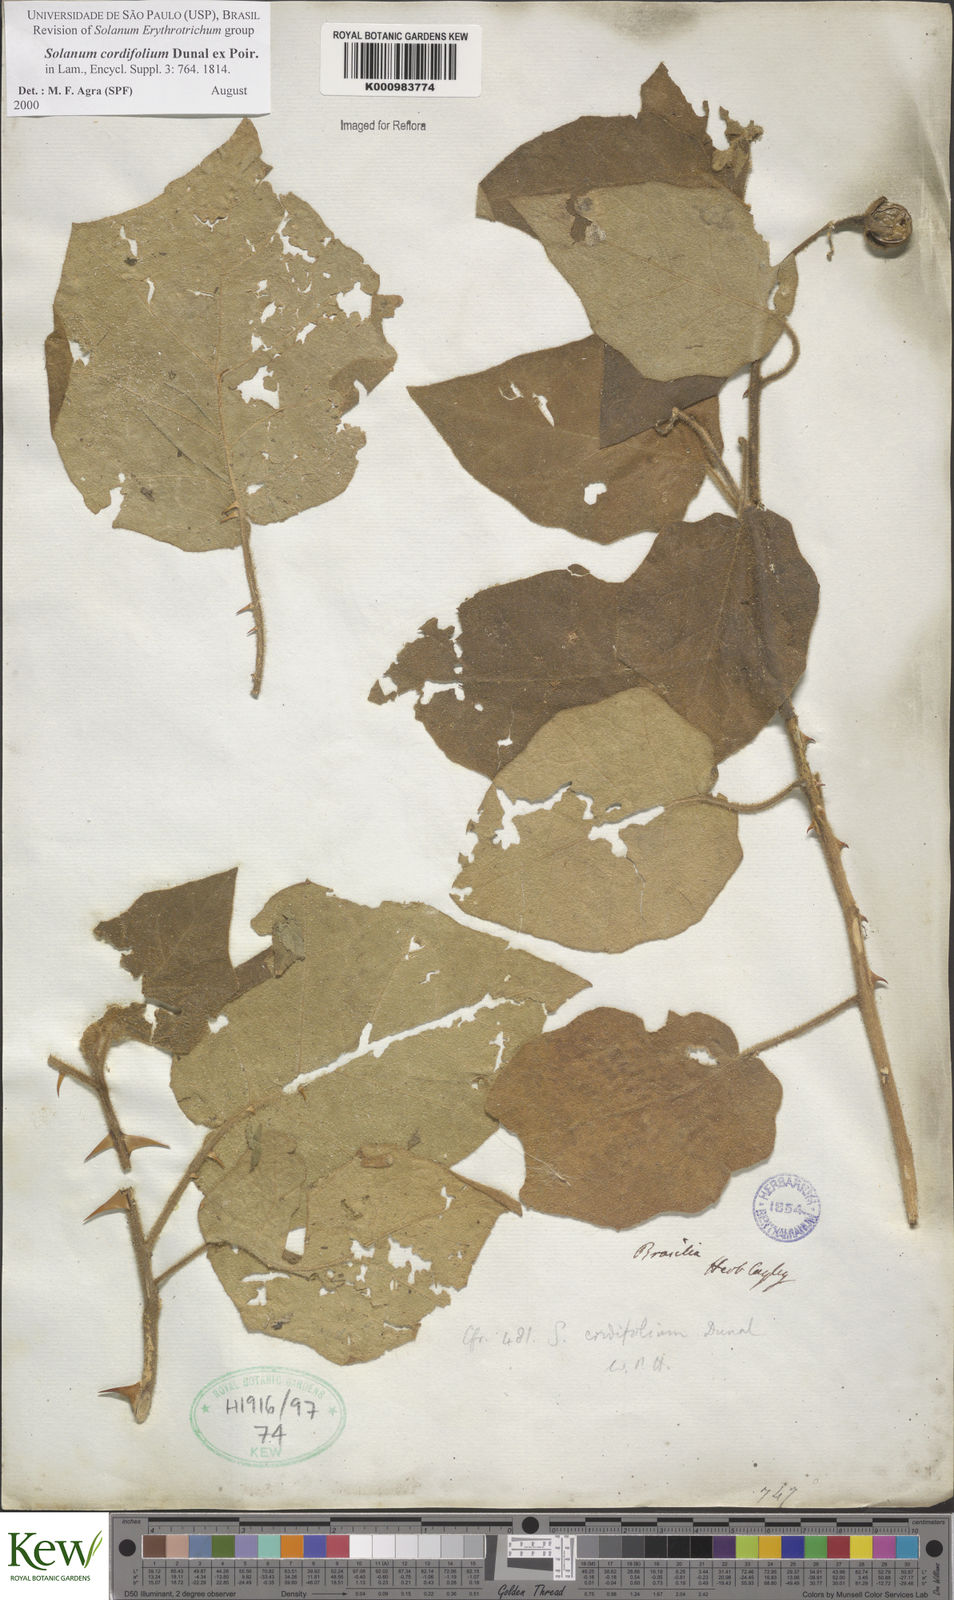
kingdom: Plantae
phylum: Tracheophyta
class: Magnoliopsida
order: Solanales
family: Solanaceae
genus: Solanum
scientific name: Solanum cordifolium
